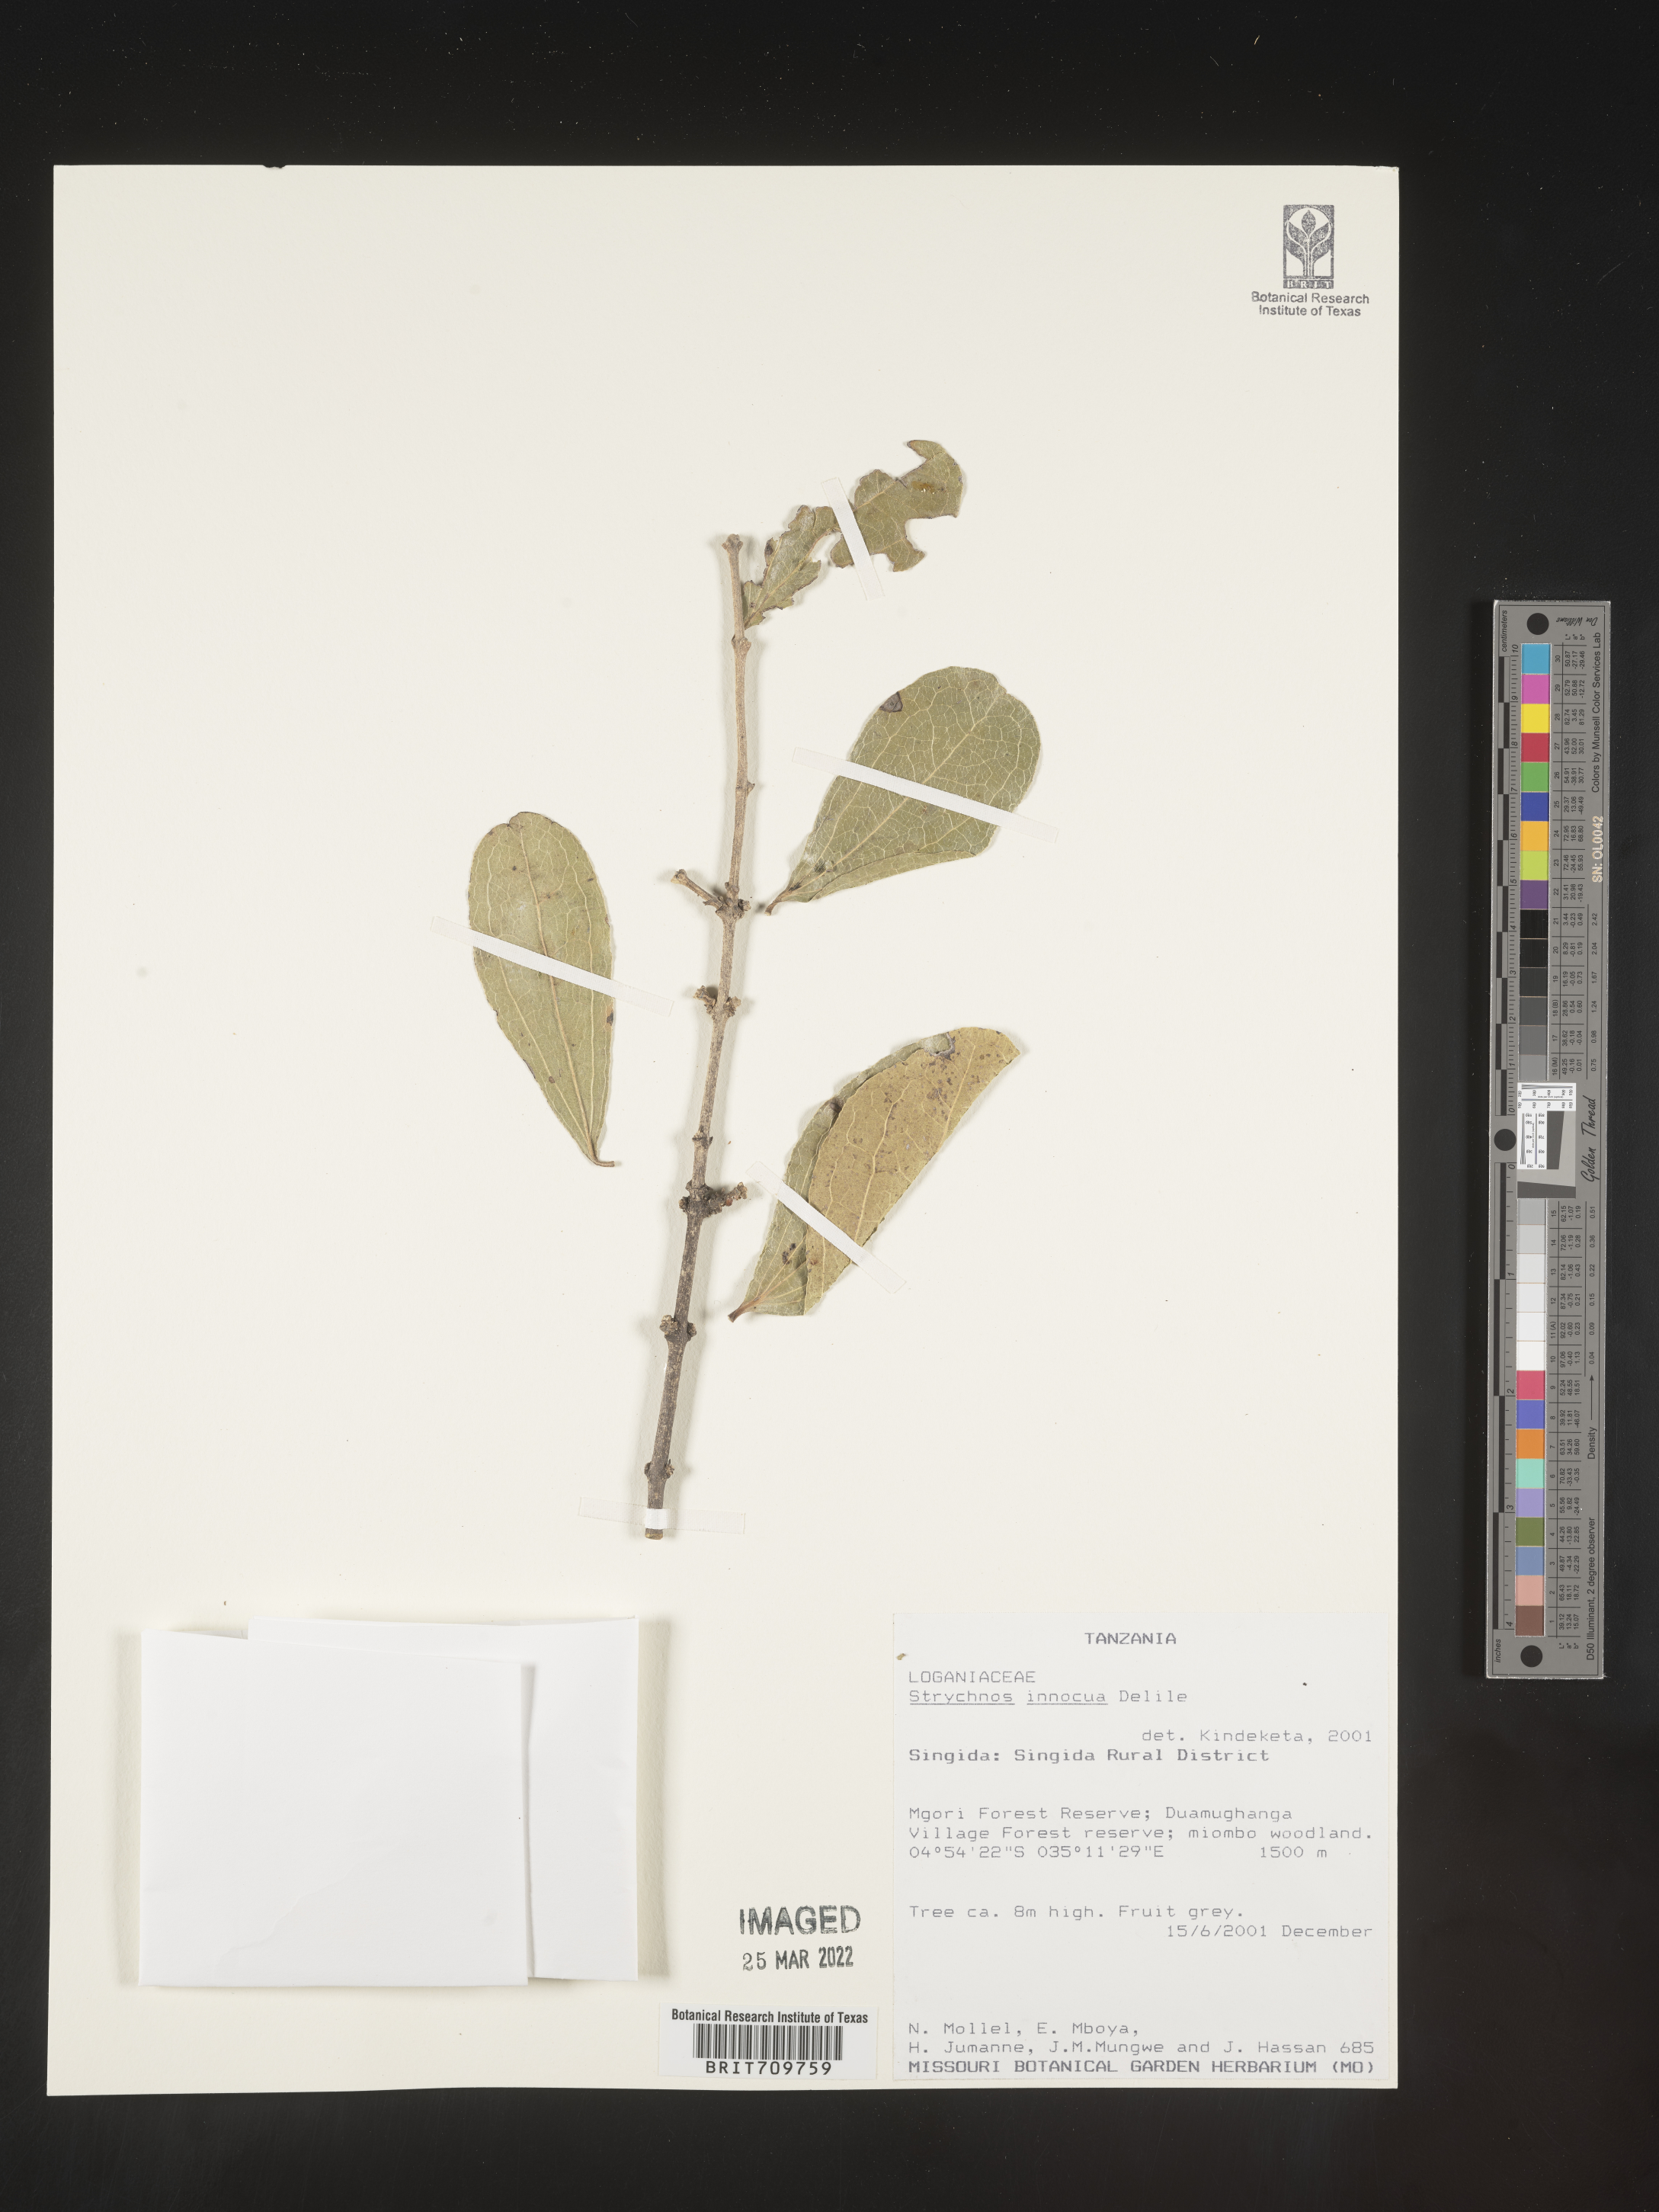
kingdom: Plantae
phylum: Tracheophyta
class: Magnoliopsida
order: Gentianales
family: Loganiaceae
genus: Strychnos
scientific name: Strychnos
